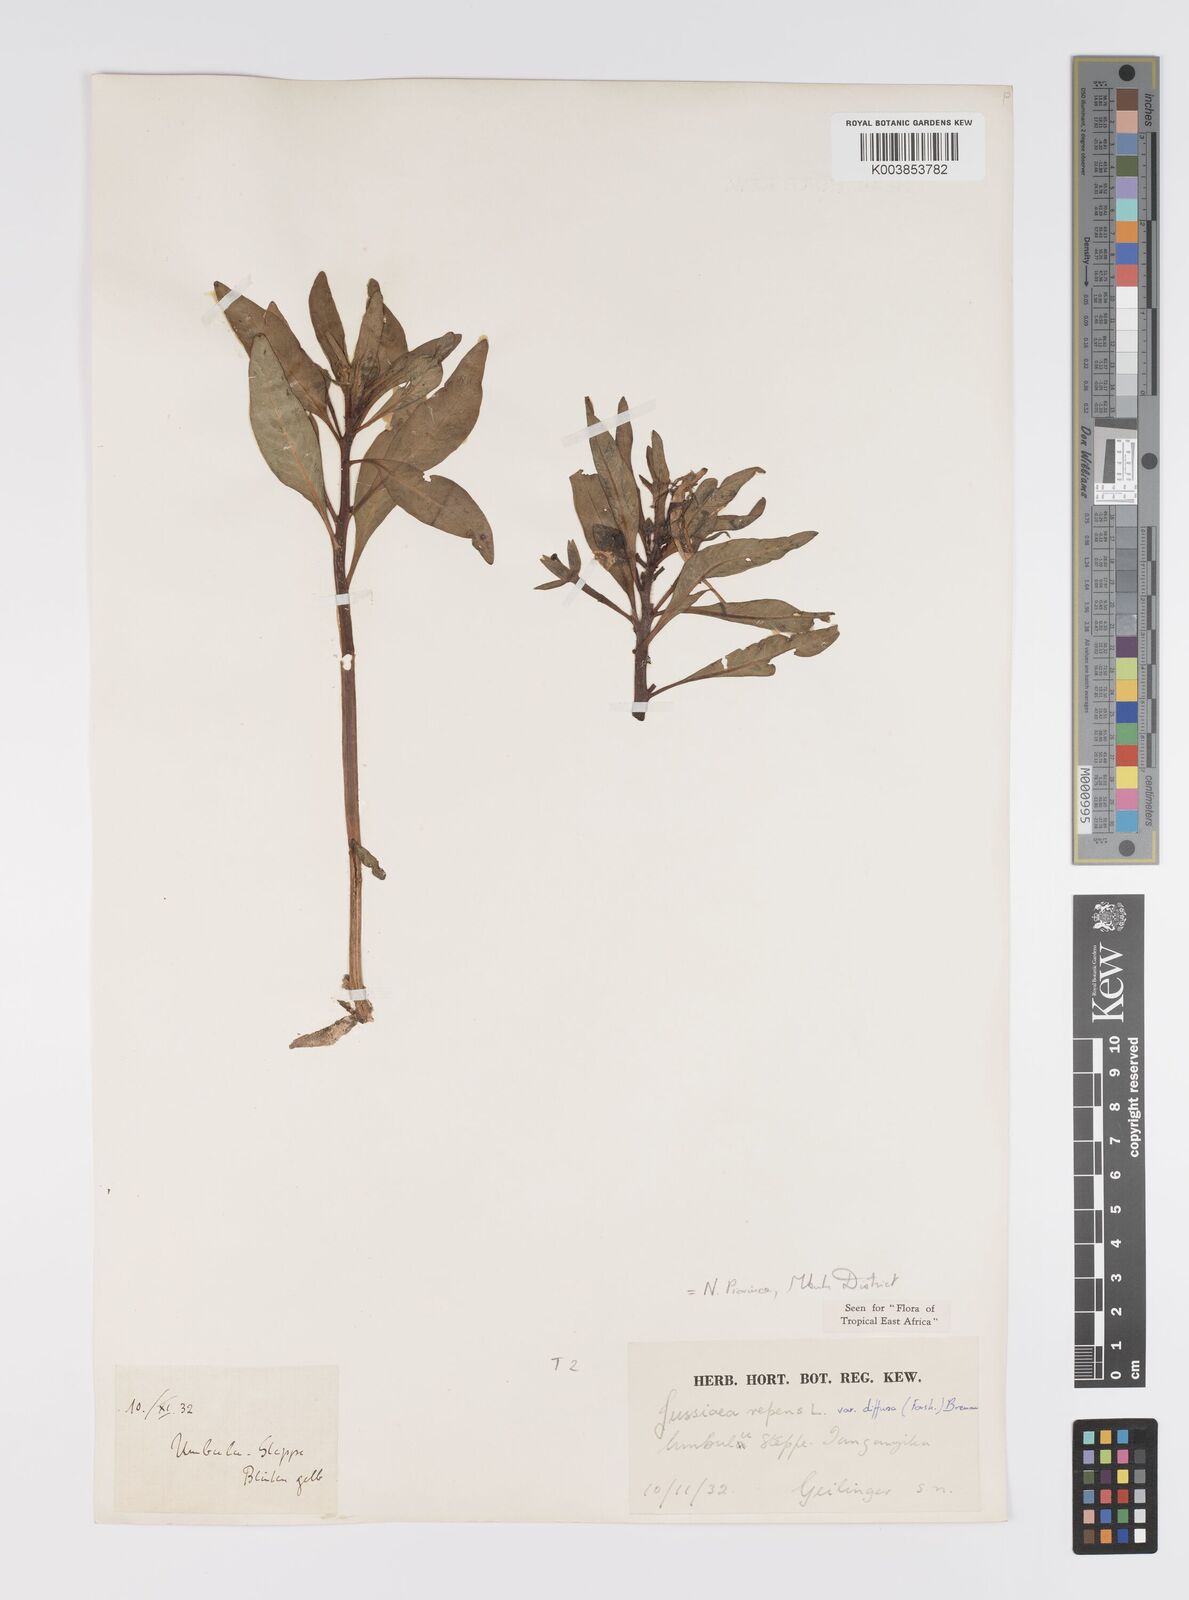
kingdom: Plantae
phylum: Tracheophyta
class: Magnoliopsida
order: Myrtales
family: Onagraceae
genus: Ludwigia
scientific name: Ludwigia repens
